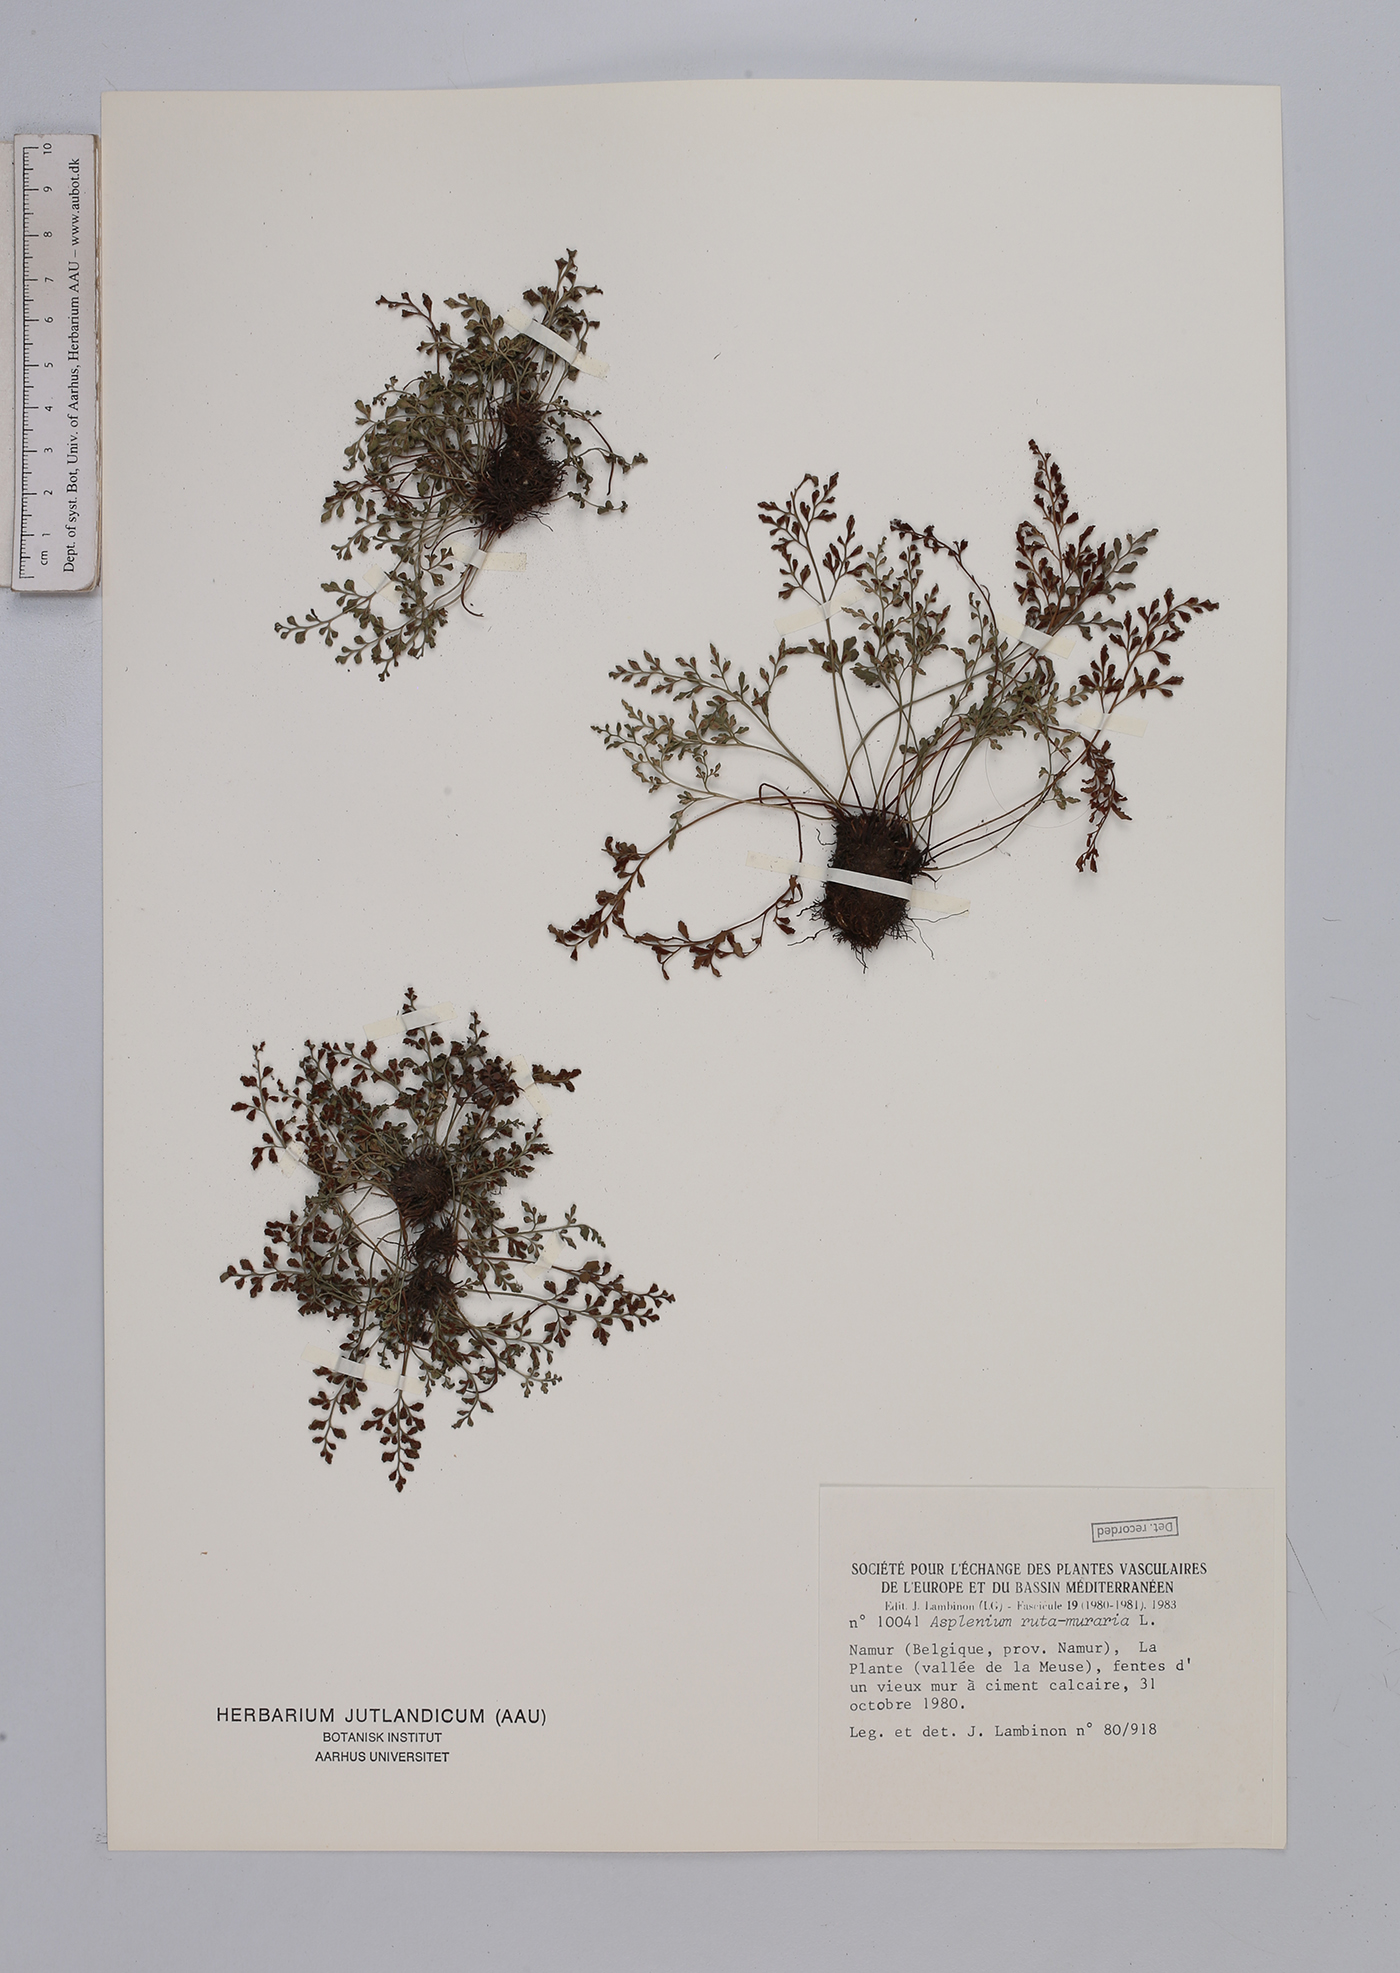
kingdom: Plantae
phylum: Tracheophyta
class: Polypodiopsida
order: Polypodiales
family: Aspleniaceae
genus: Asplenium
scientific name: Asplenium ruta-muraria
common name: Wall-rue
